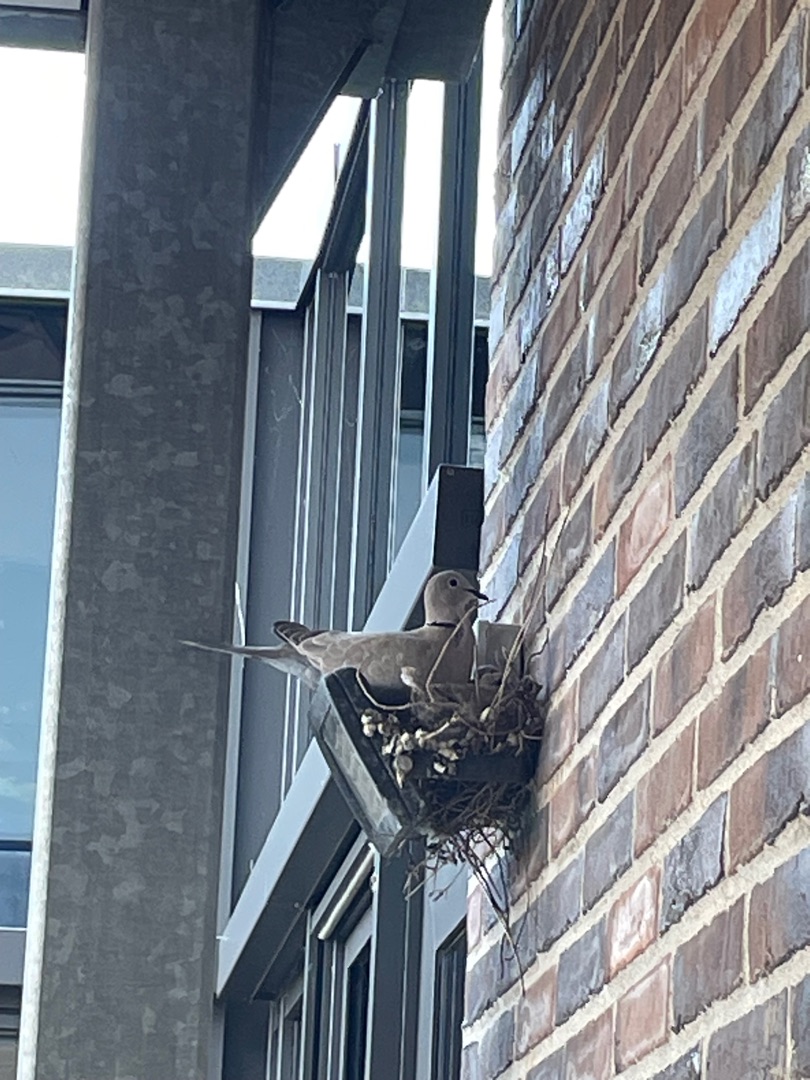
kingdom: Animalia
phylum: Chordata
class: Aves
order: Columbiformes
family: Columbidae
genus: Streptopelia
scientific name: Streptopelia decaocto
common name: Tyrkerdue
